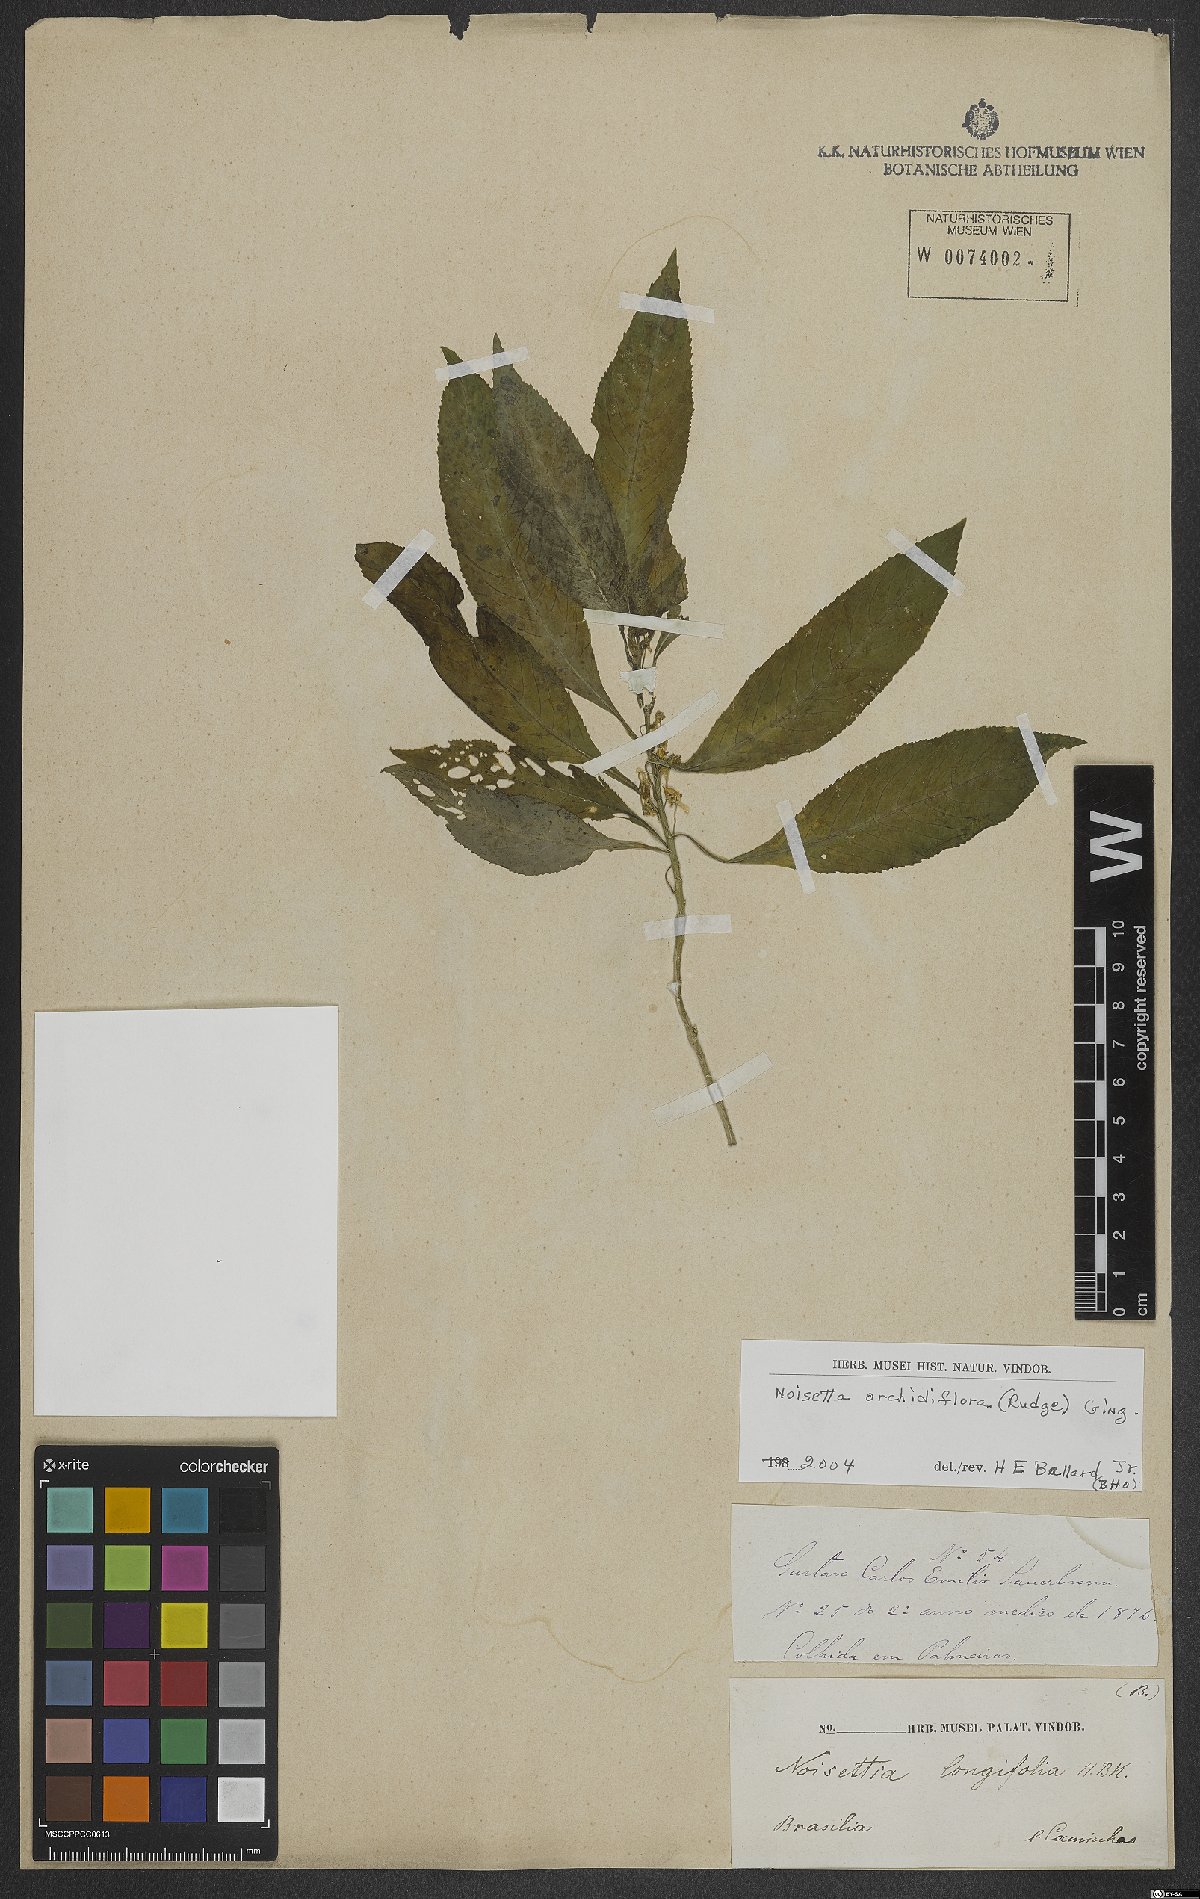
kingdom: Plantae
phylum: Tracheophyta
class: Magnoliopsida
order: Malpighiales
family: Violaceae
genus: Noisettia
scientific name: Noisettia orchidiflora
